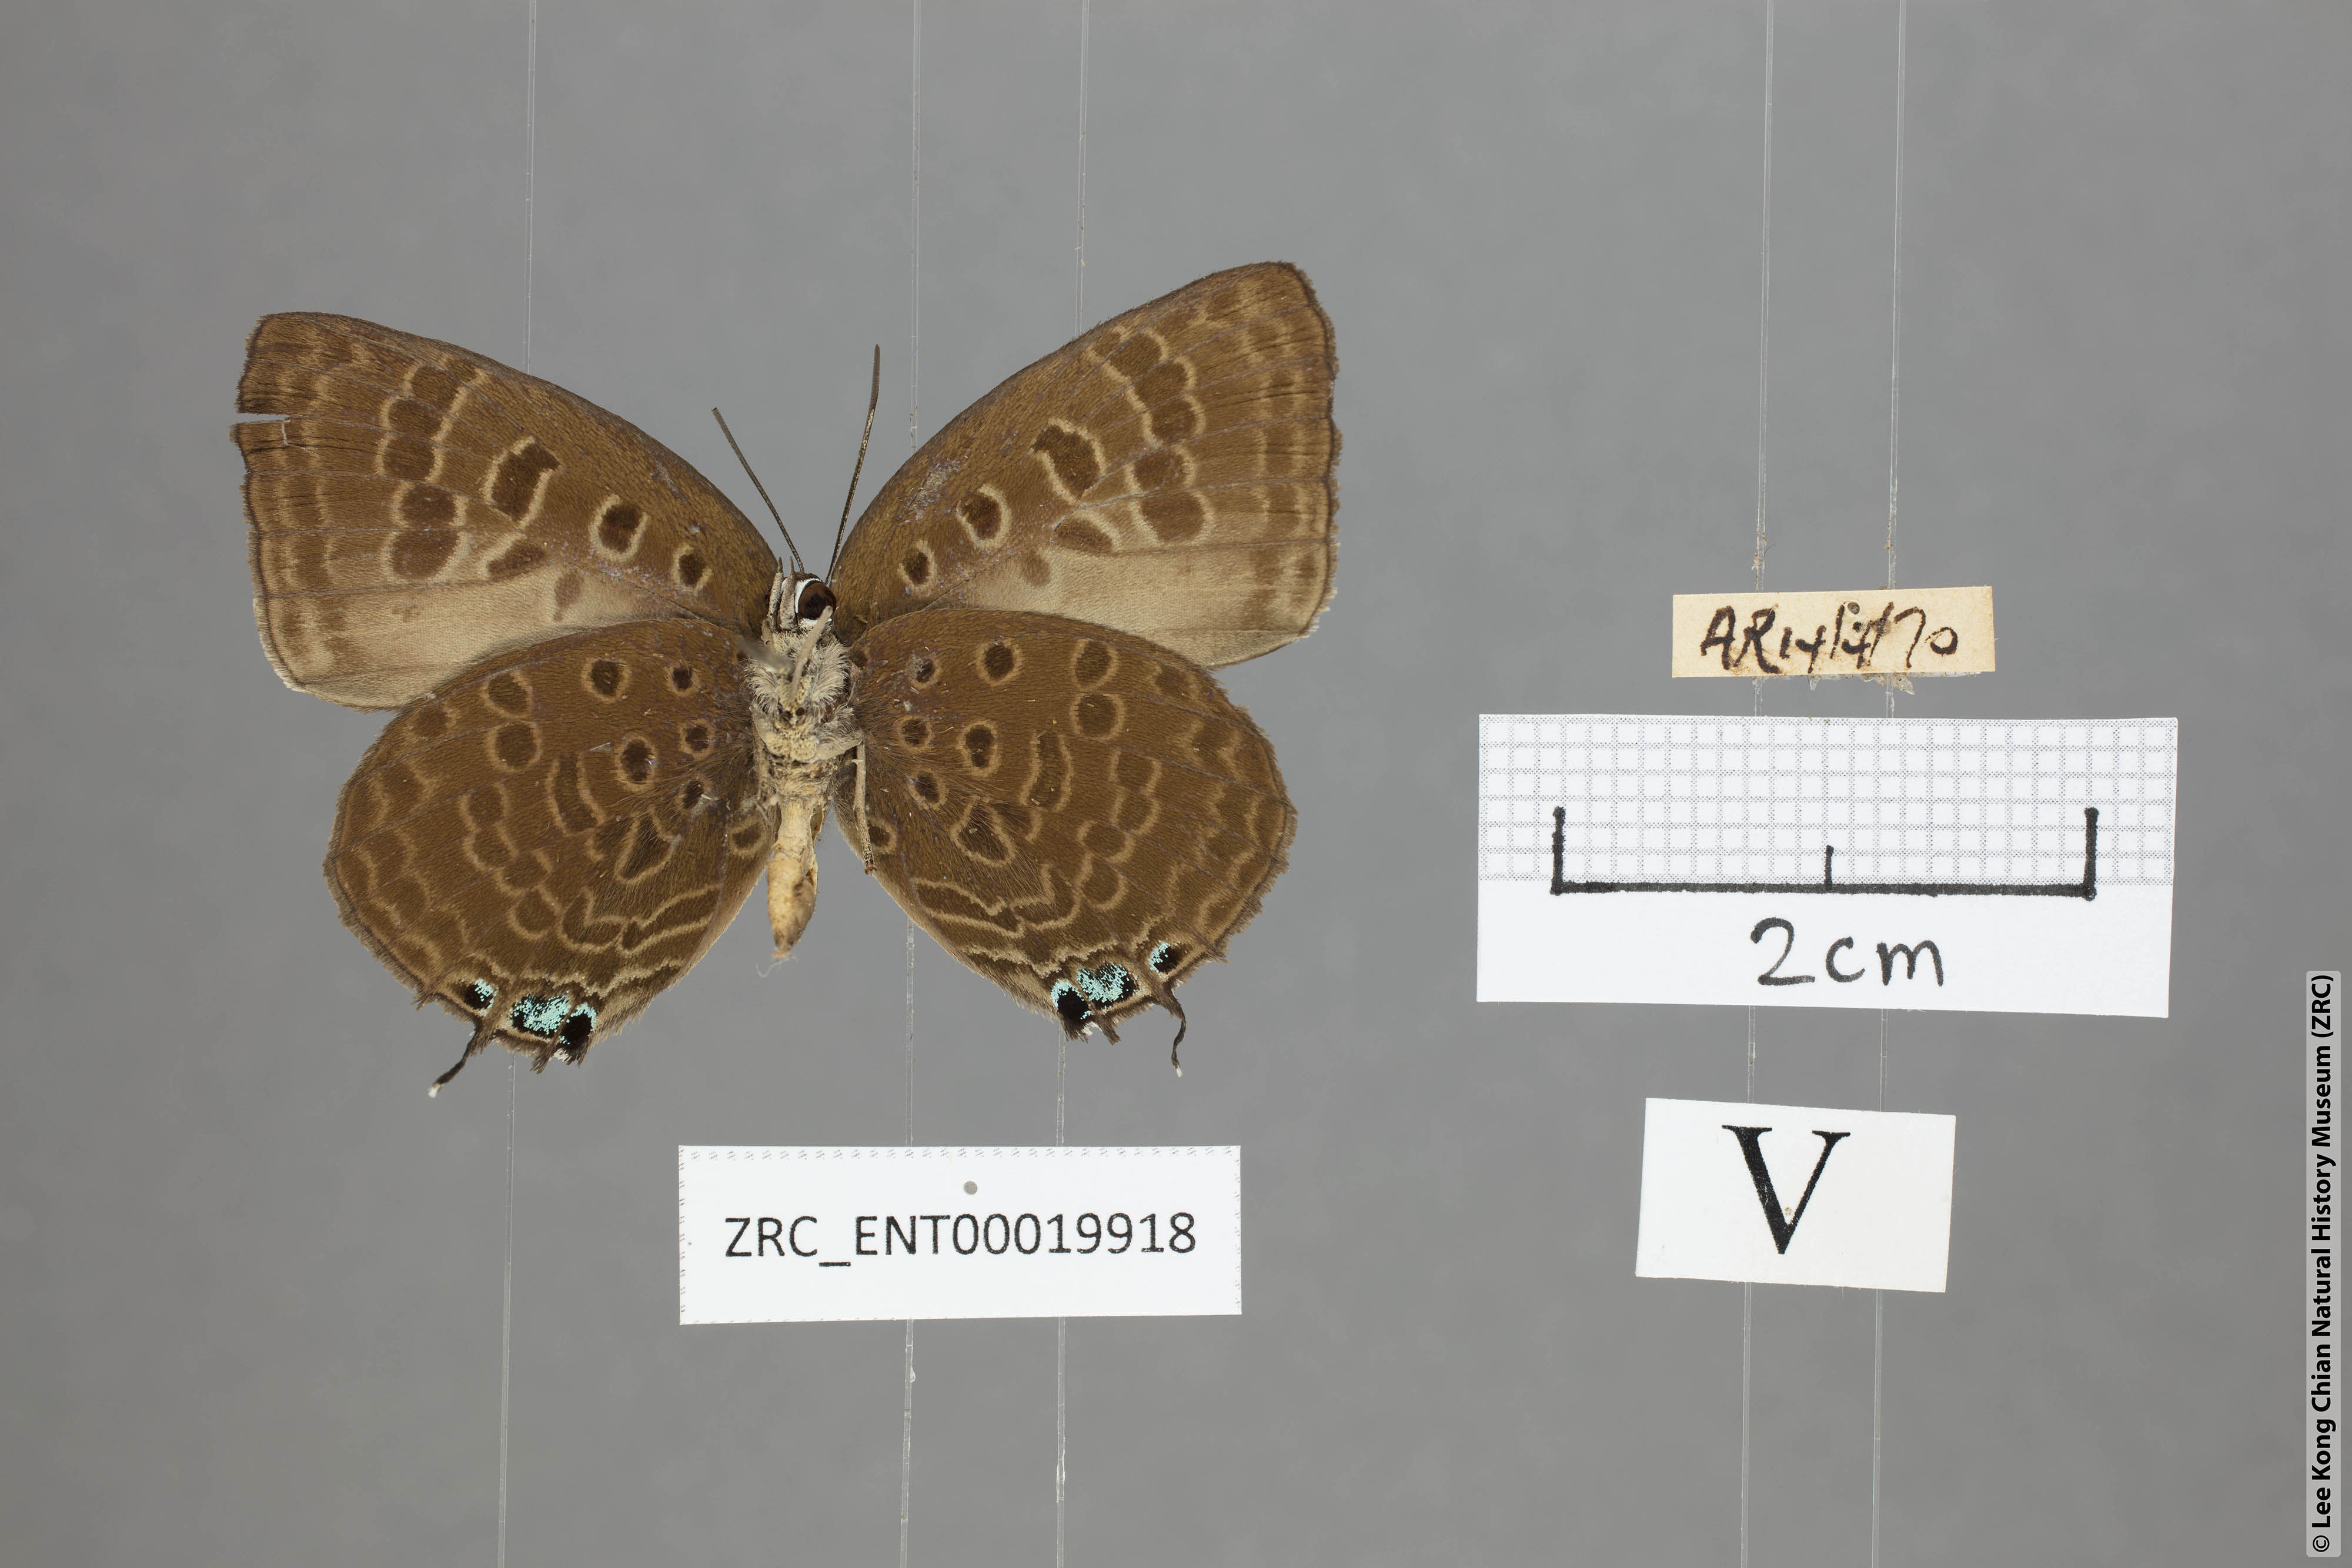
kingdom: Animalia
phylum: Arthropoda
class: Insecta
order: Lepidoptera
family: Lycaenidae
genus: Arhopala
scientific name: Arhopala vihara
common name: Large spotted oakblue
